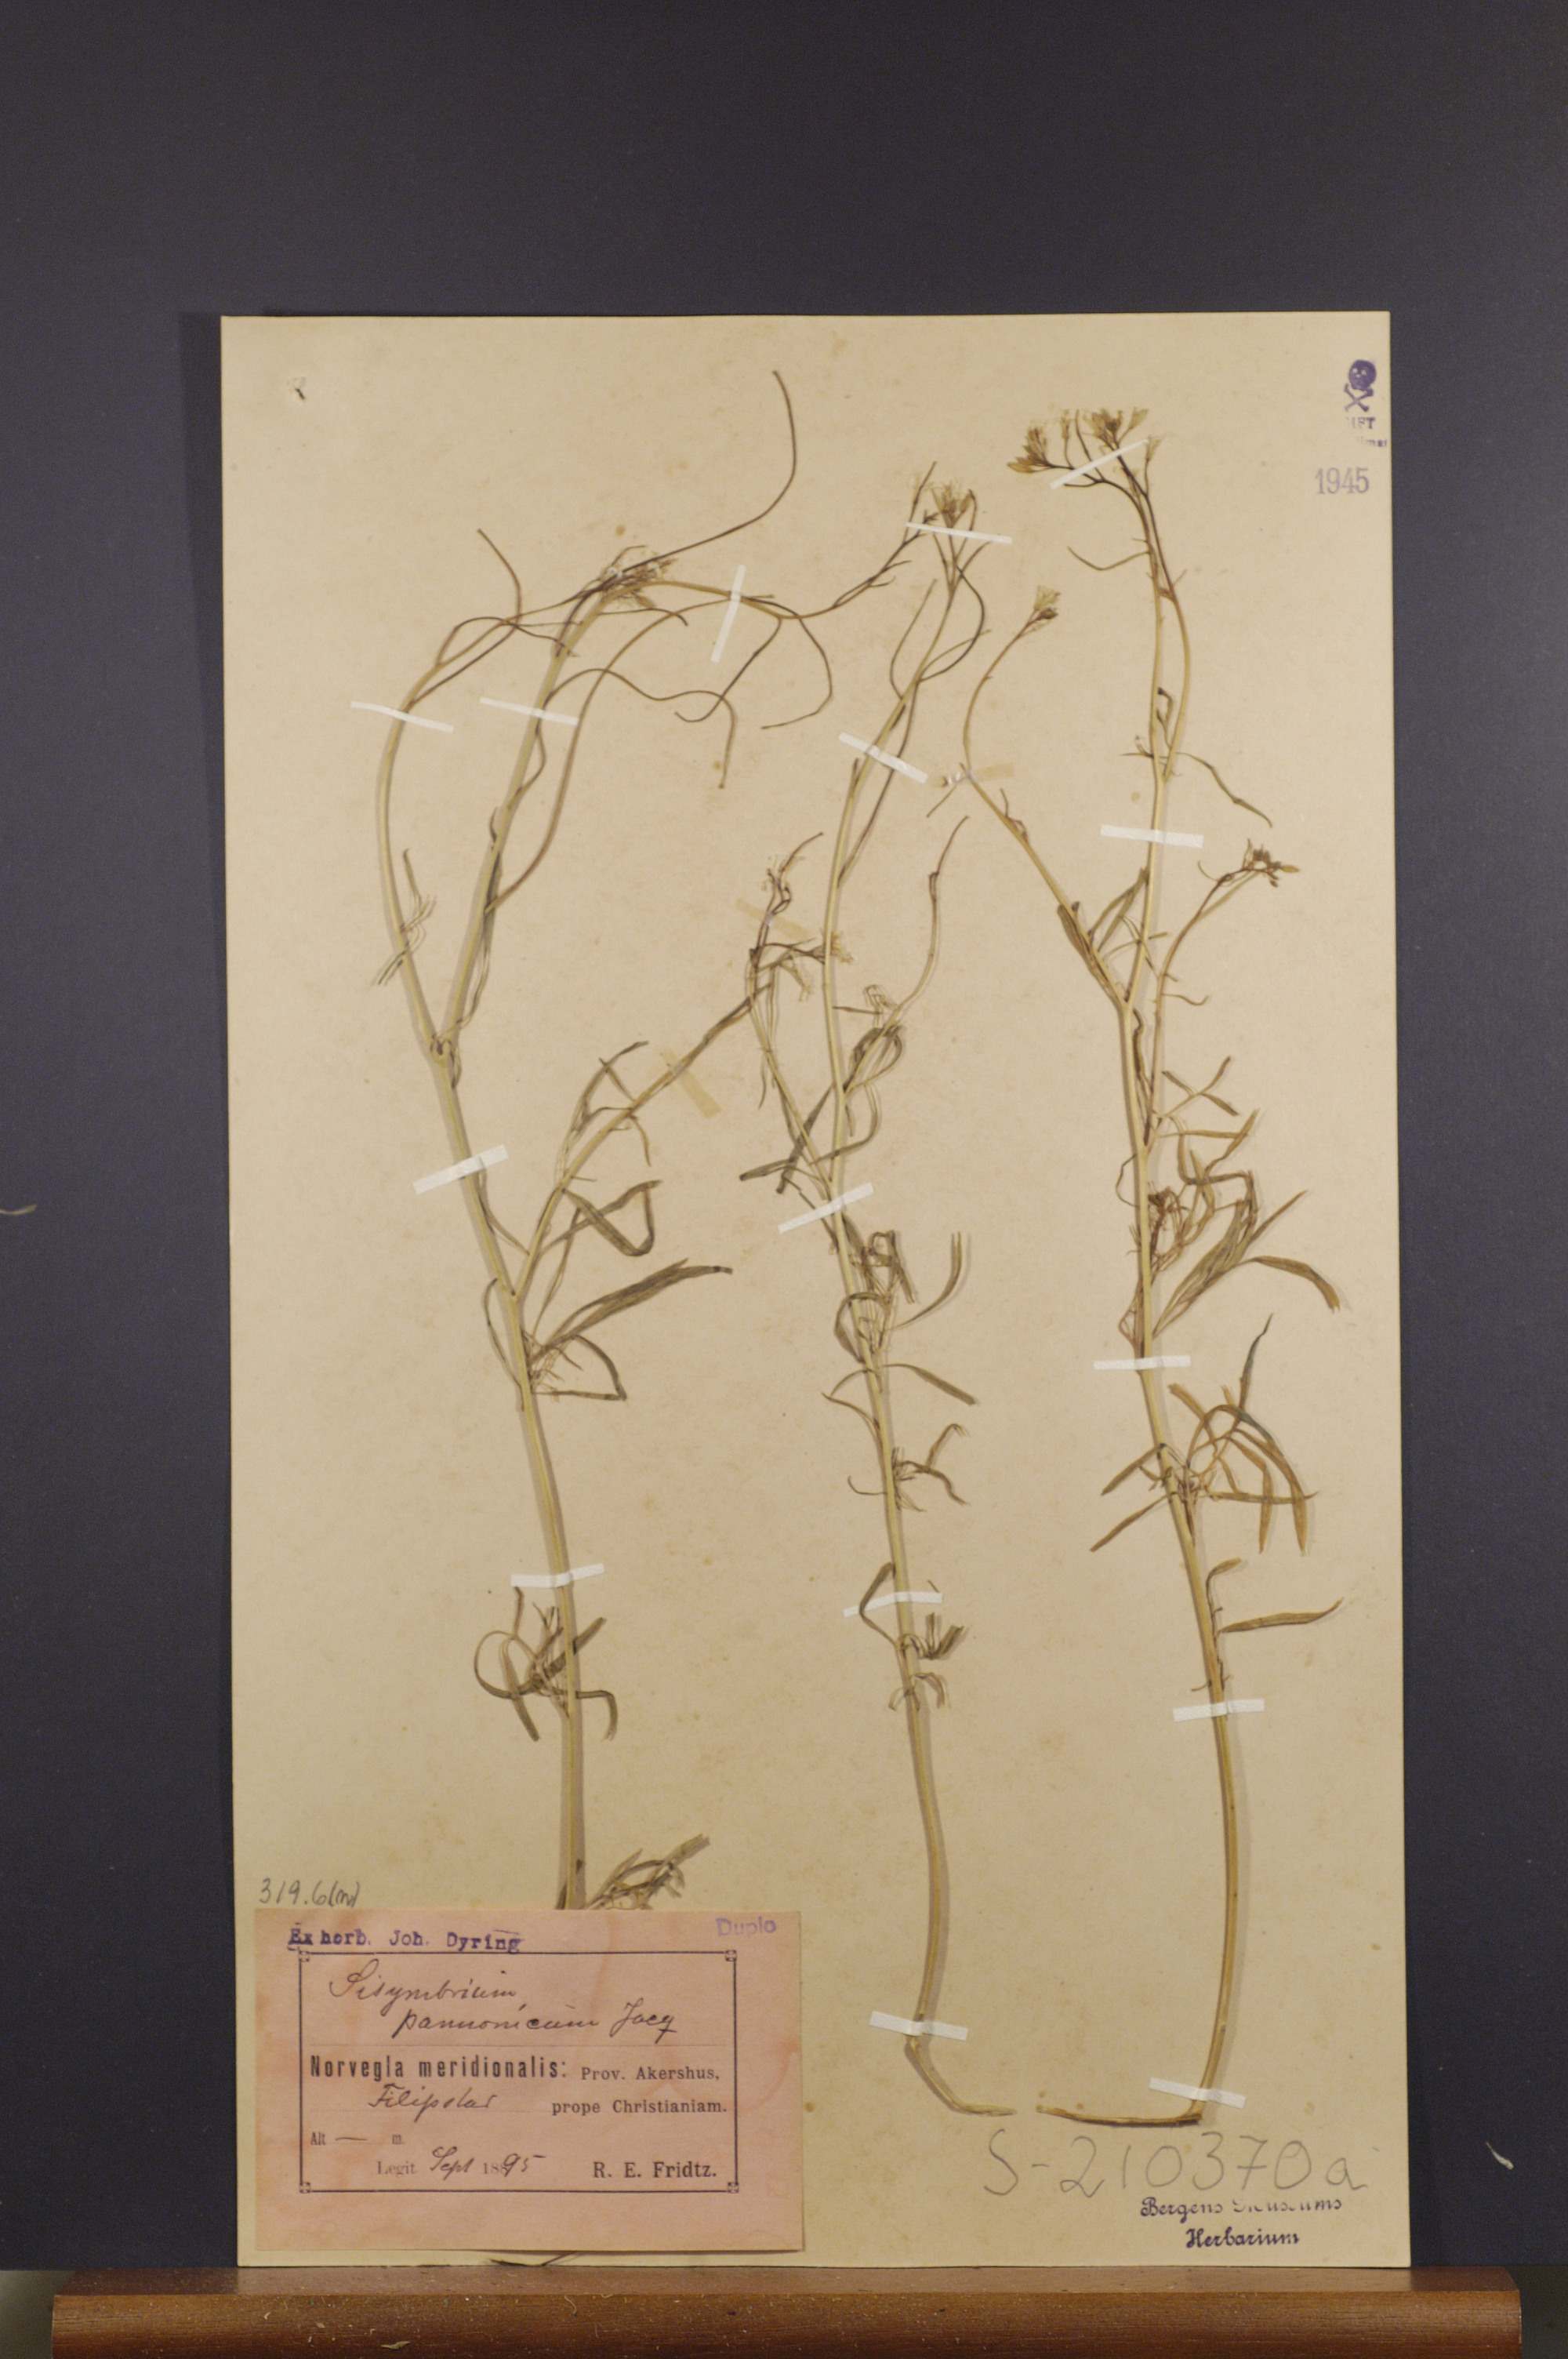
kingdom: Plantae
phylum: Tracheophyta
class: Magnoliopsida
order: Brassicales
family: Brassicaceae
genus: Sisymbrium
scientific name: Sisymbrium altissimum
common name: Tall rocket
